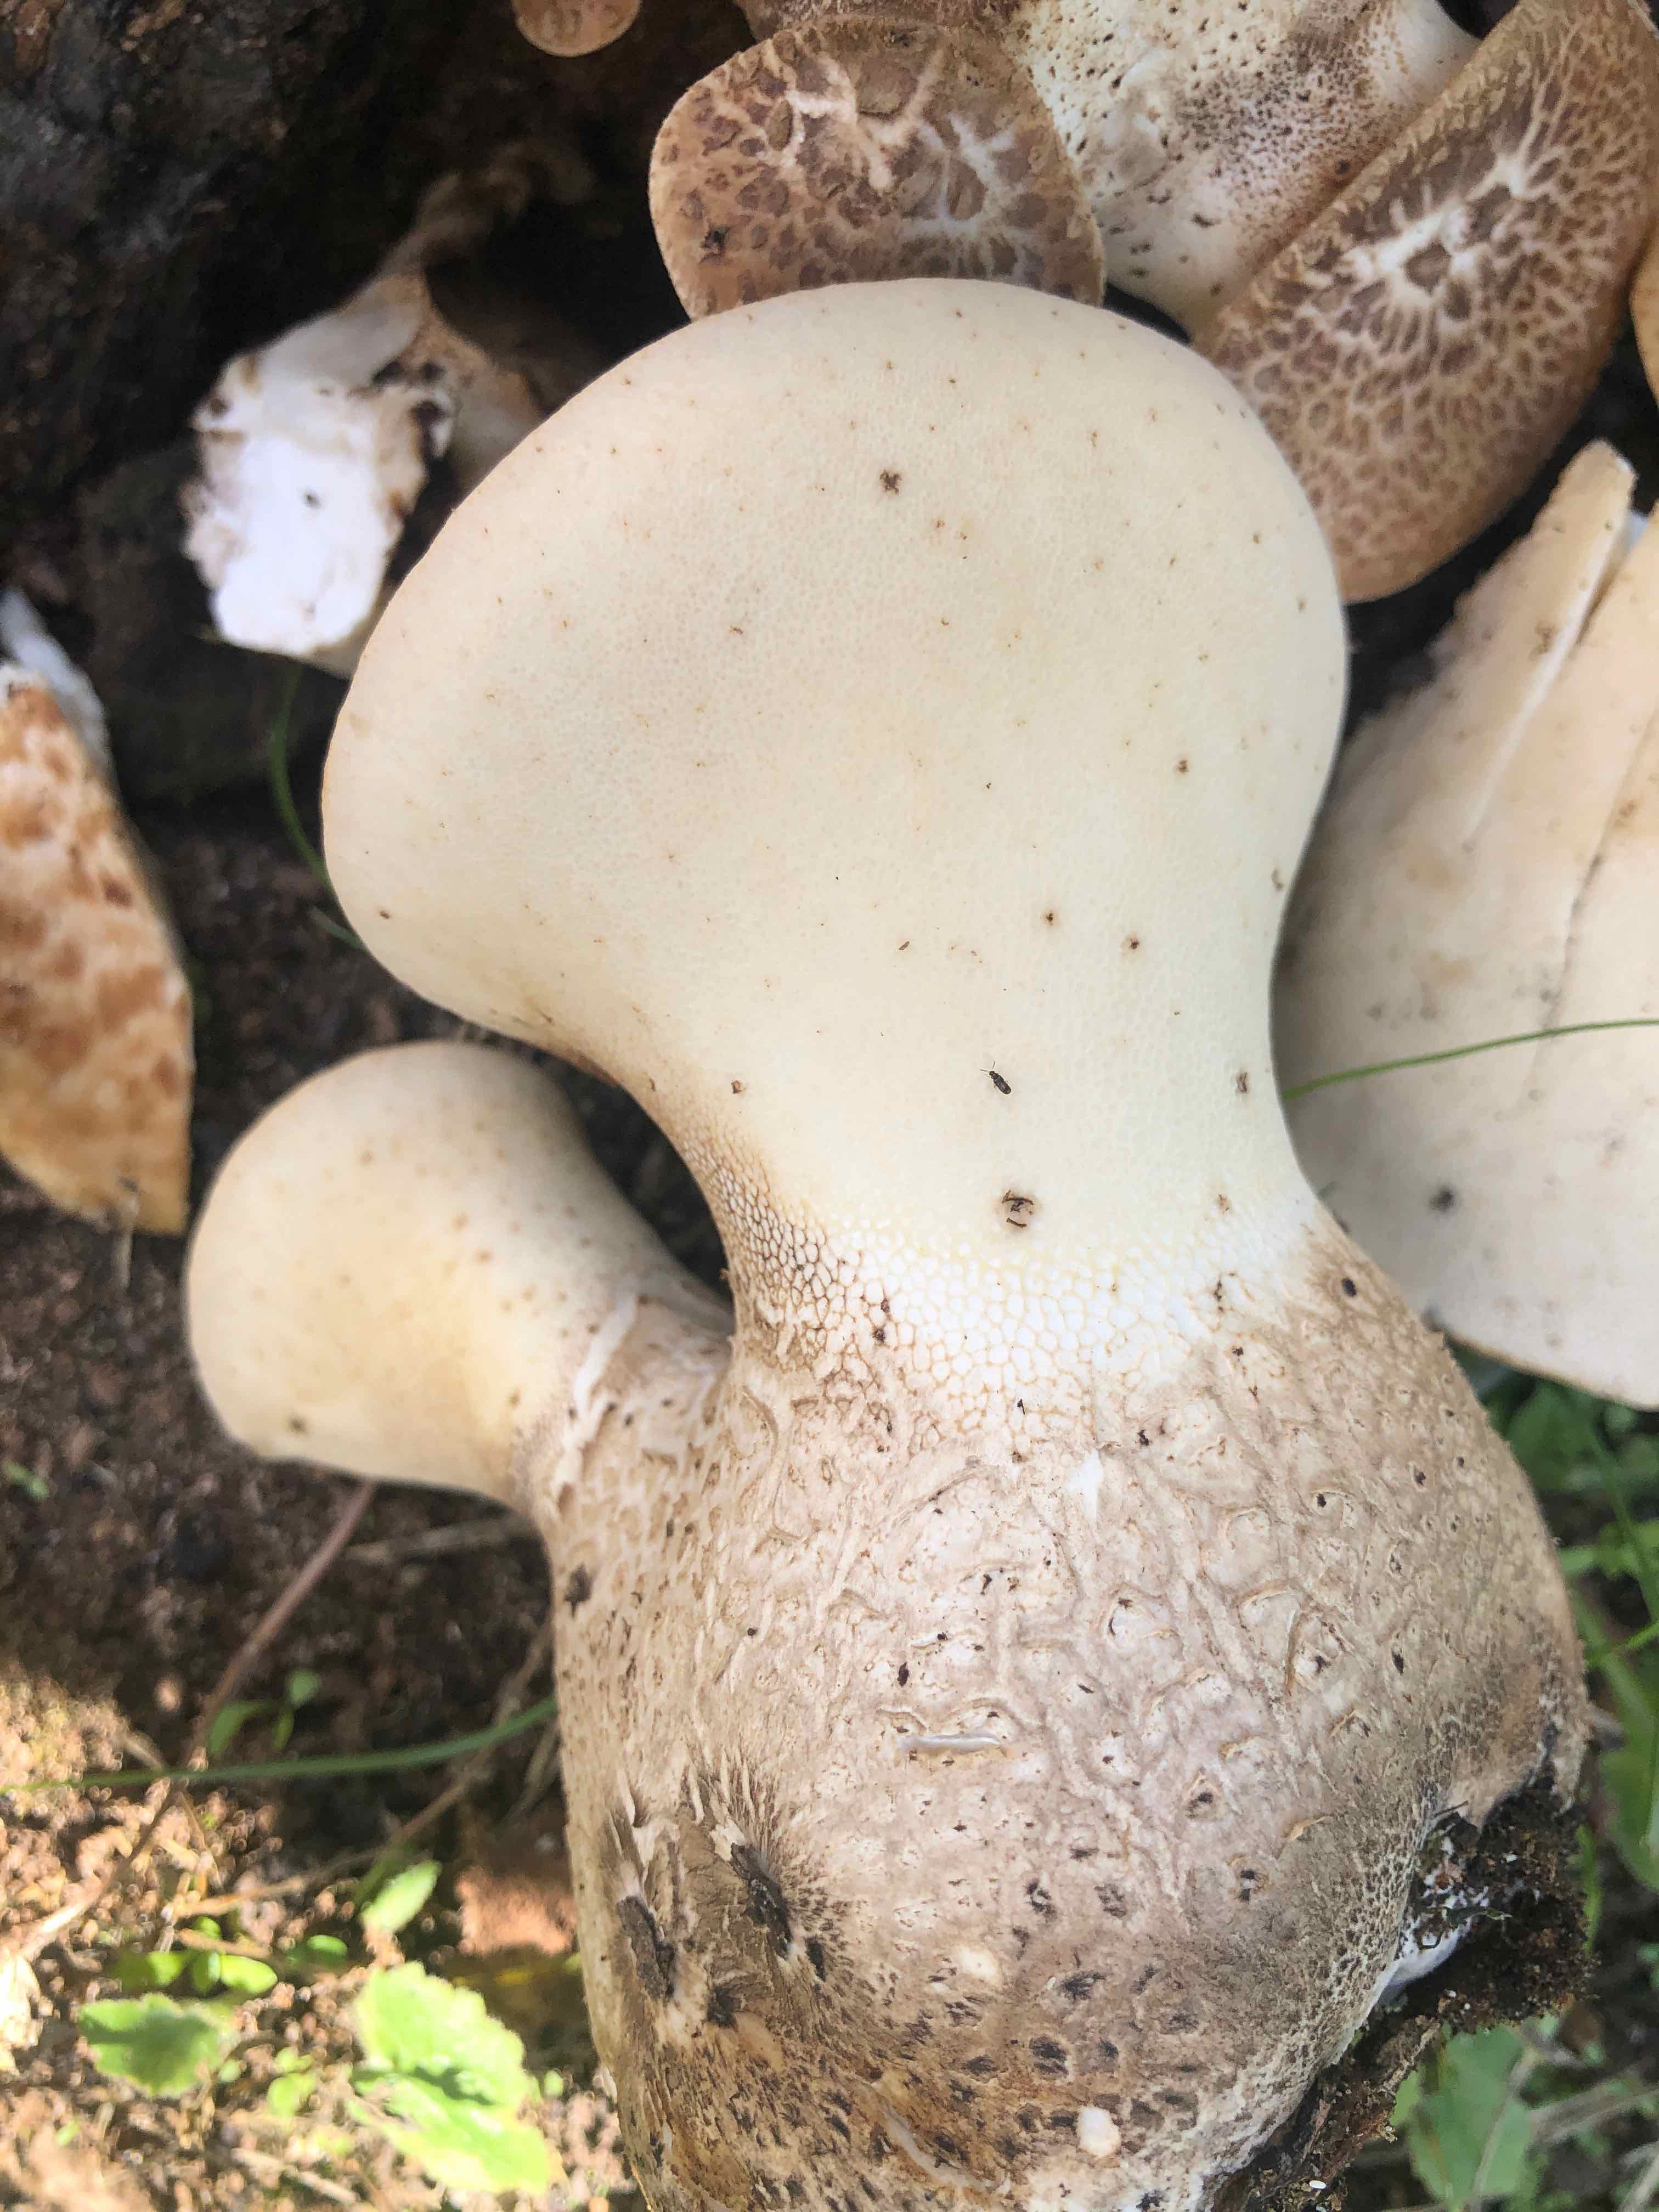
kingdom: Fungi
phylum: Basidiomycota
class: Agaricomycetes
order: Polyporales
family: Polyporaceae
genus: Cerioporus
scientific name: Cerioporus squamosus
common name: skællet stilkporesvamp
